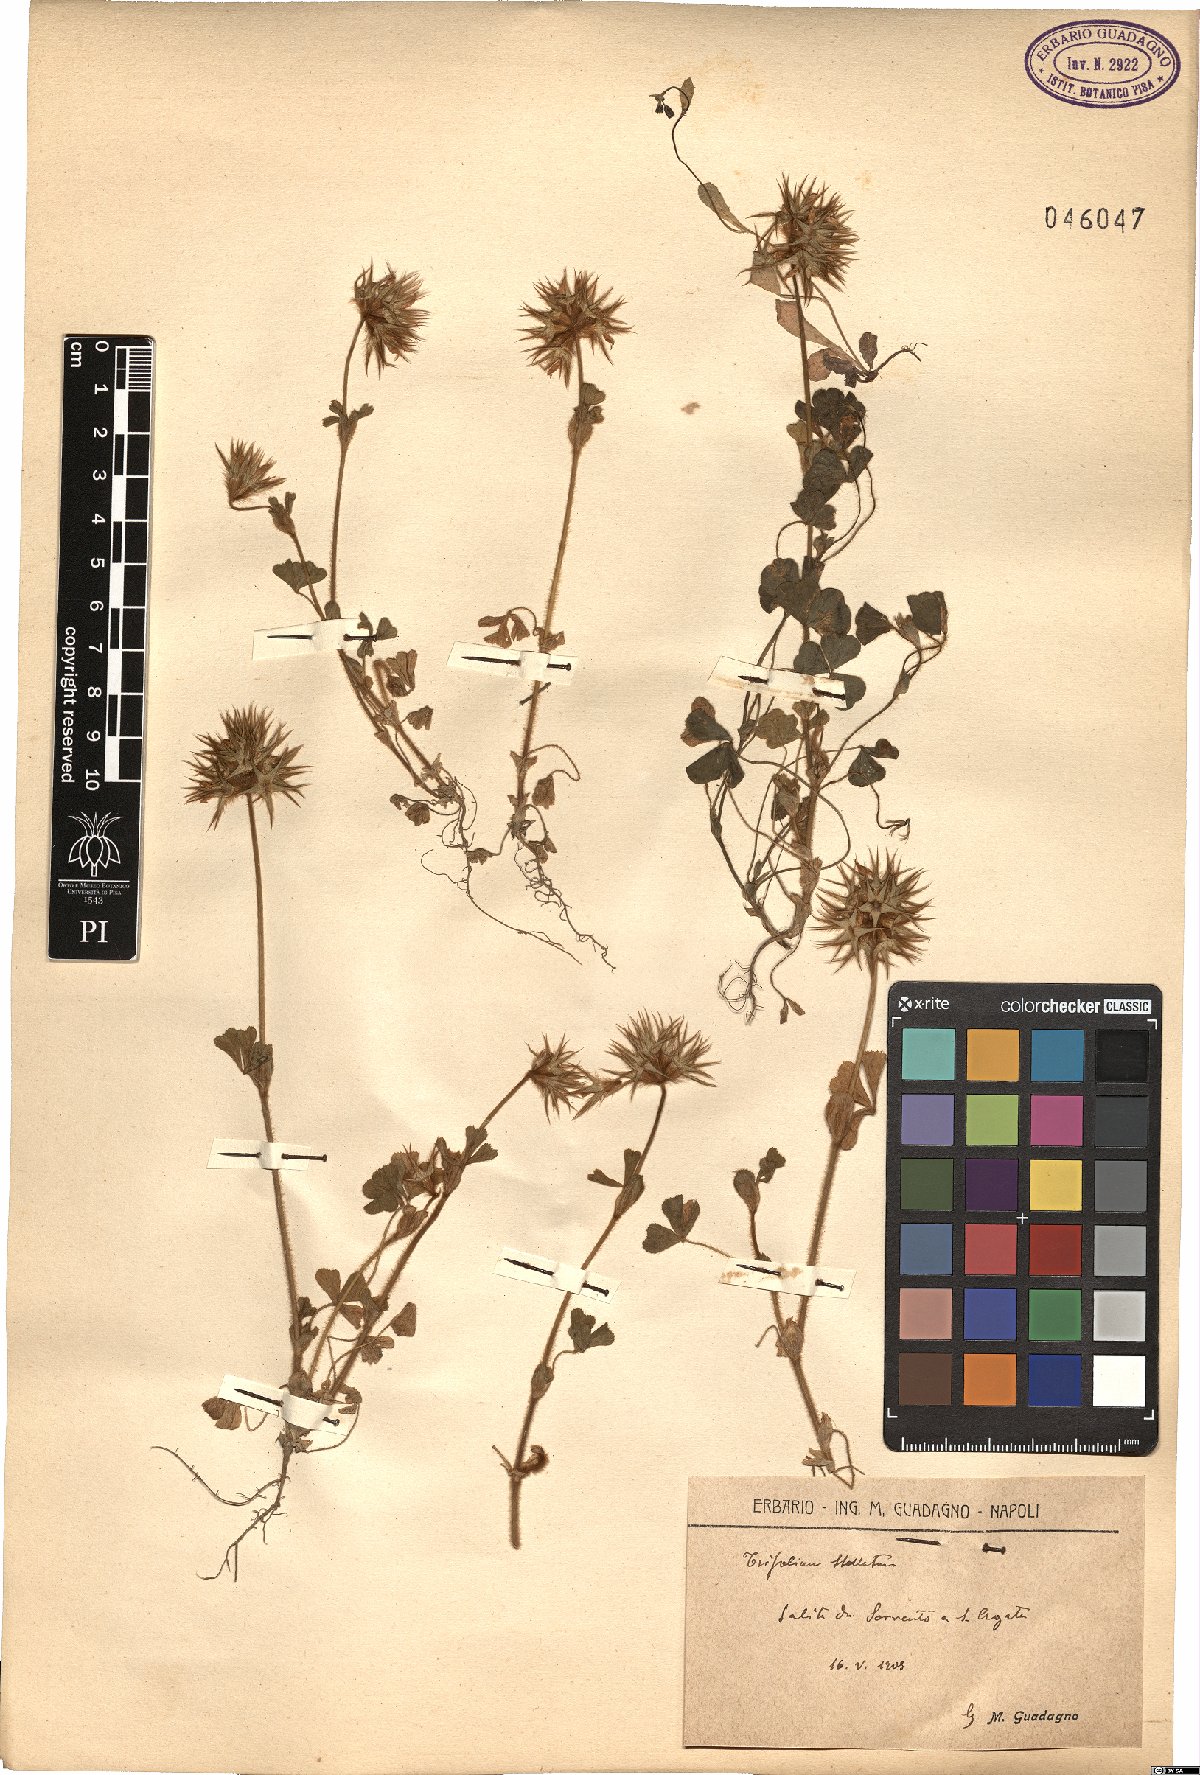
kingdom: Plantae
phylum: Tracheophyta
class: Magnoliopsida
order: Fabales
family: Fabaceae
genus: Trifolium
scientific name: Trifolium stellatum
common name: Starry clover
